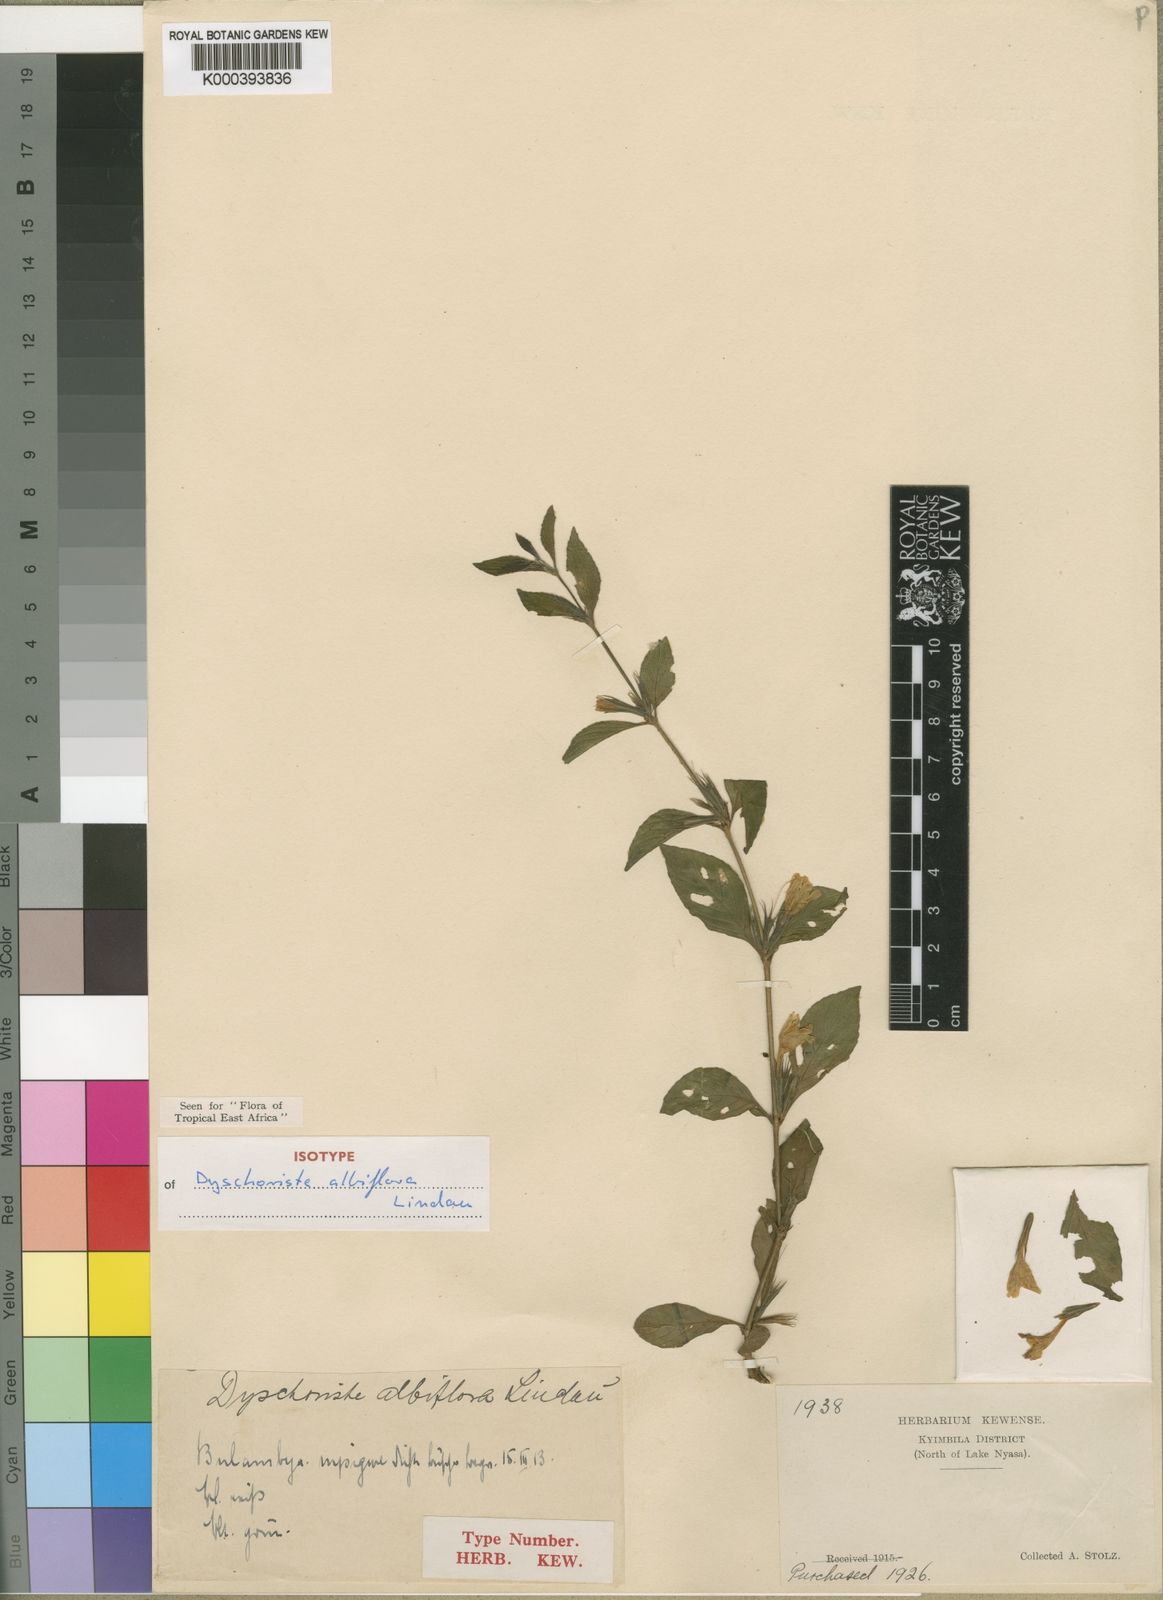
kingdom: Plantae
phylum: Tracheophyta
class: Magnoliopsida
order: Lamiales
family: Acanthaceae
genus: Dyschoriste
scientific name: Dyschoriste albiflora
